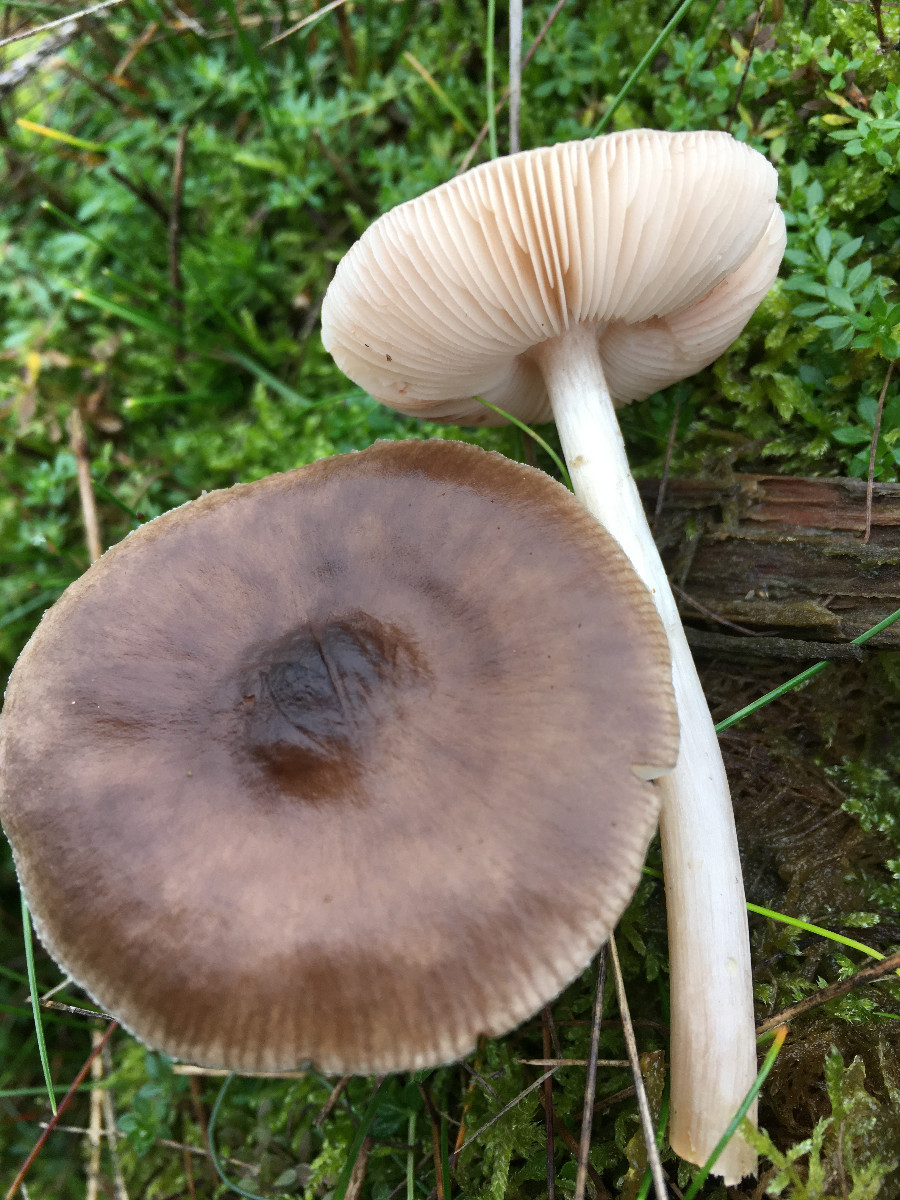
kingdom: Fungi
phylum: Basidiomycota
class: Agaricomycetes
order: Agaricales
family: Pluteaceae
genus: Pluteus
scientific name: Pluteus
